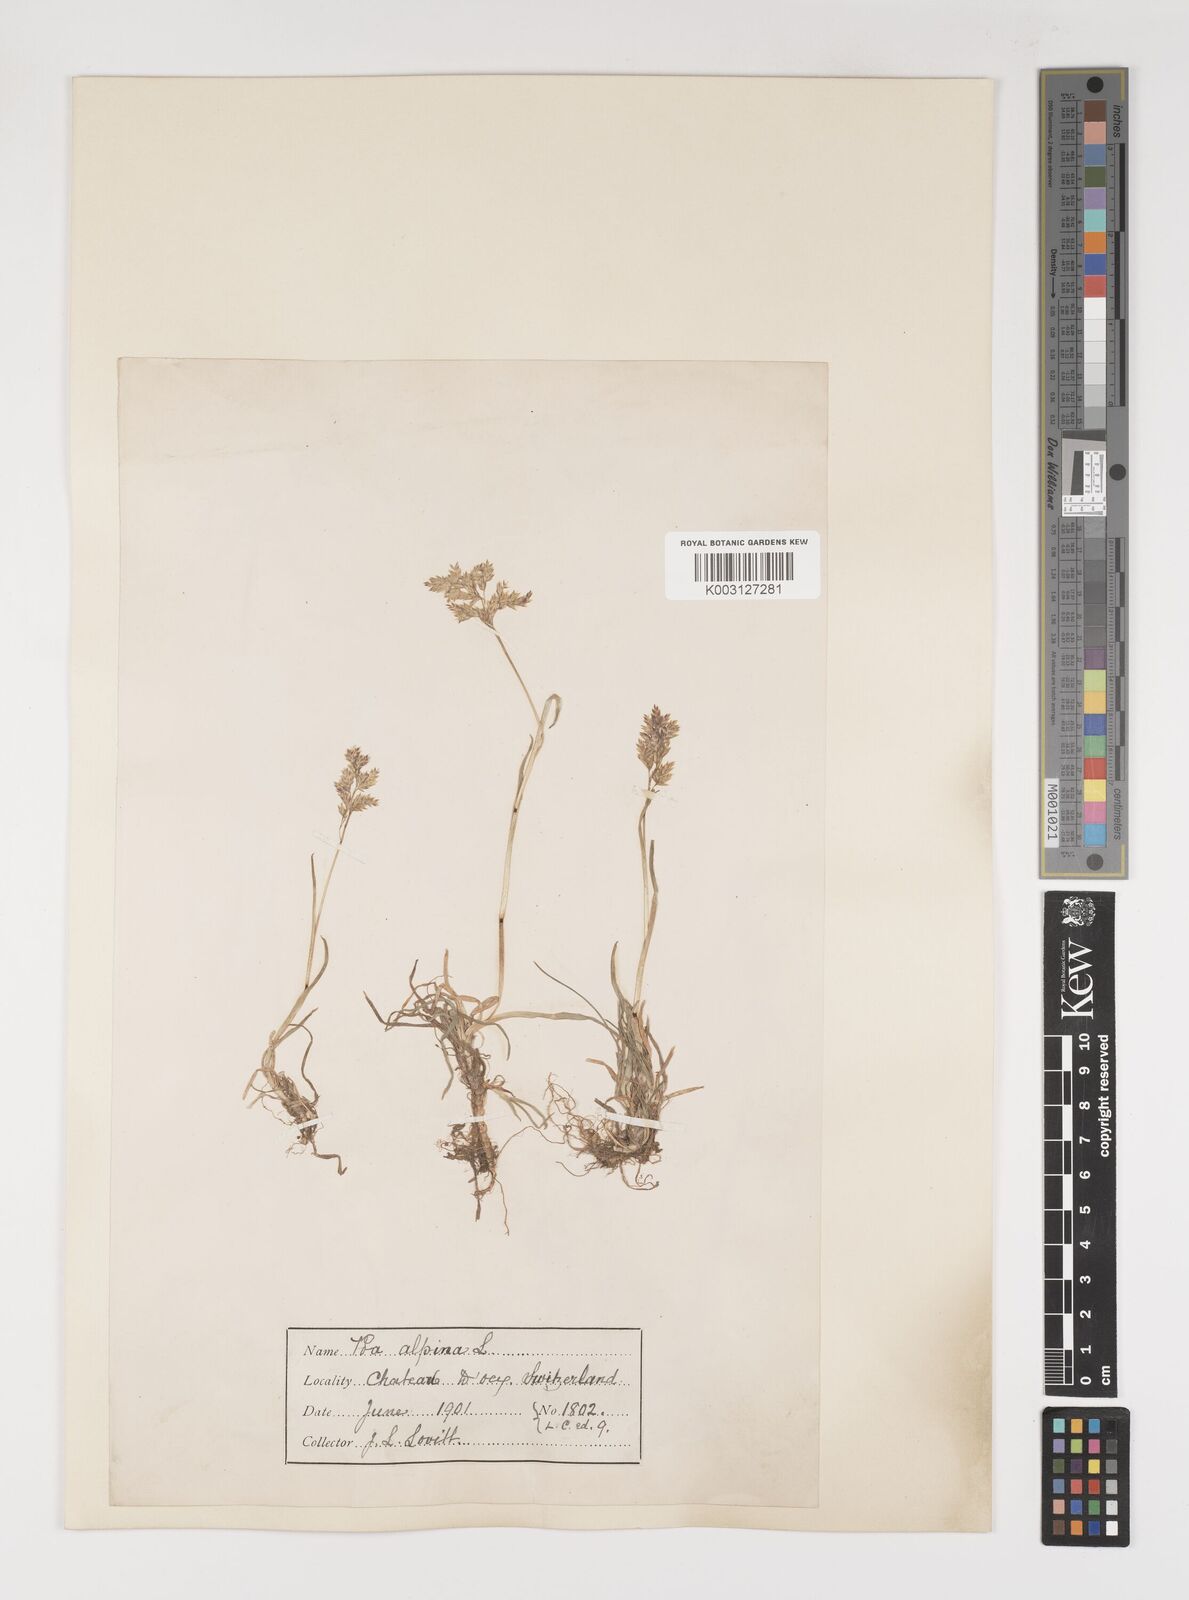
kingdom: Plantae
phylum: Tracheophyta
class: Liliopsida
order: Poales
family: Poaceae
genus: Poa
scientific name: Poa alpina
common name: Alpine bluegrass
